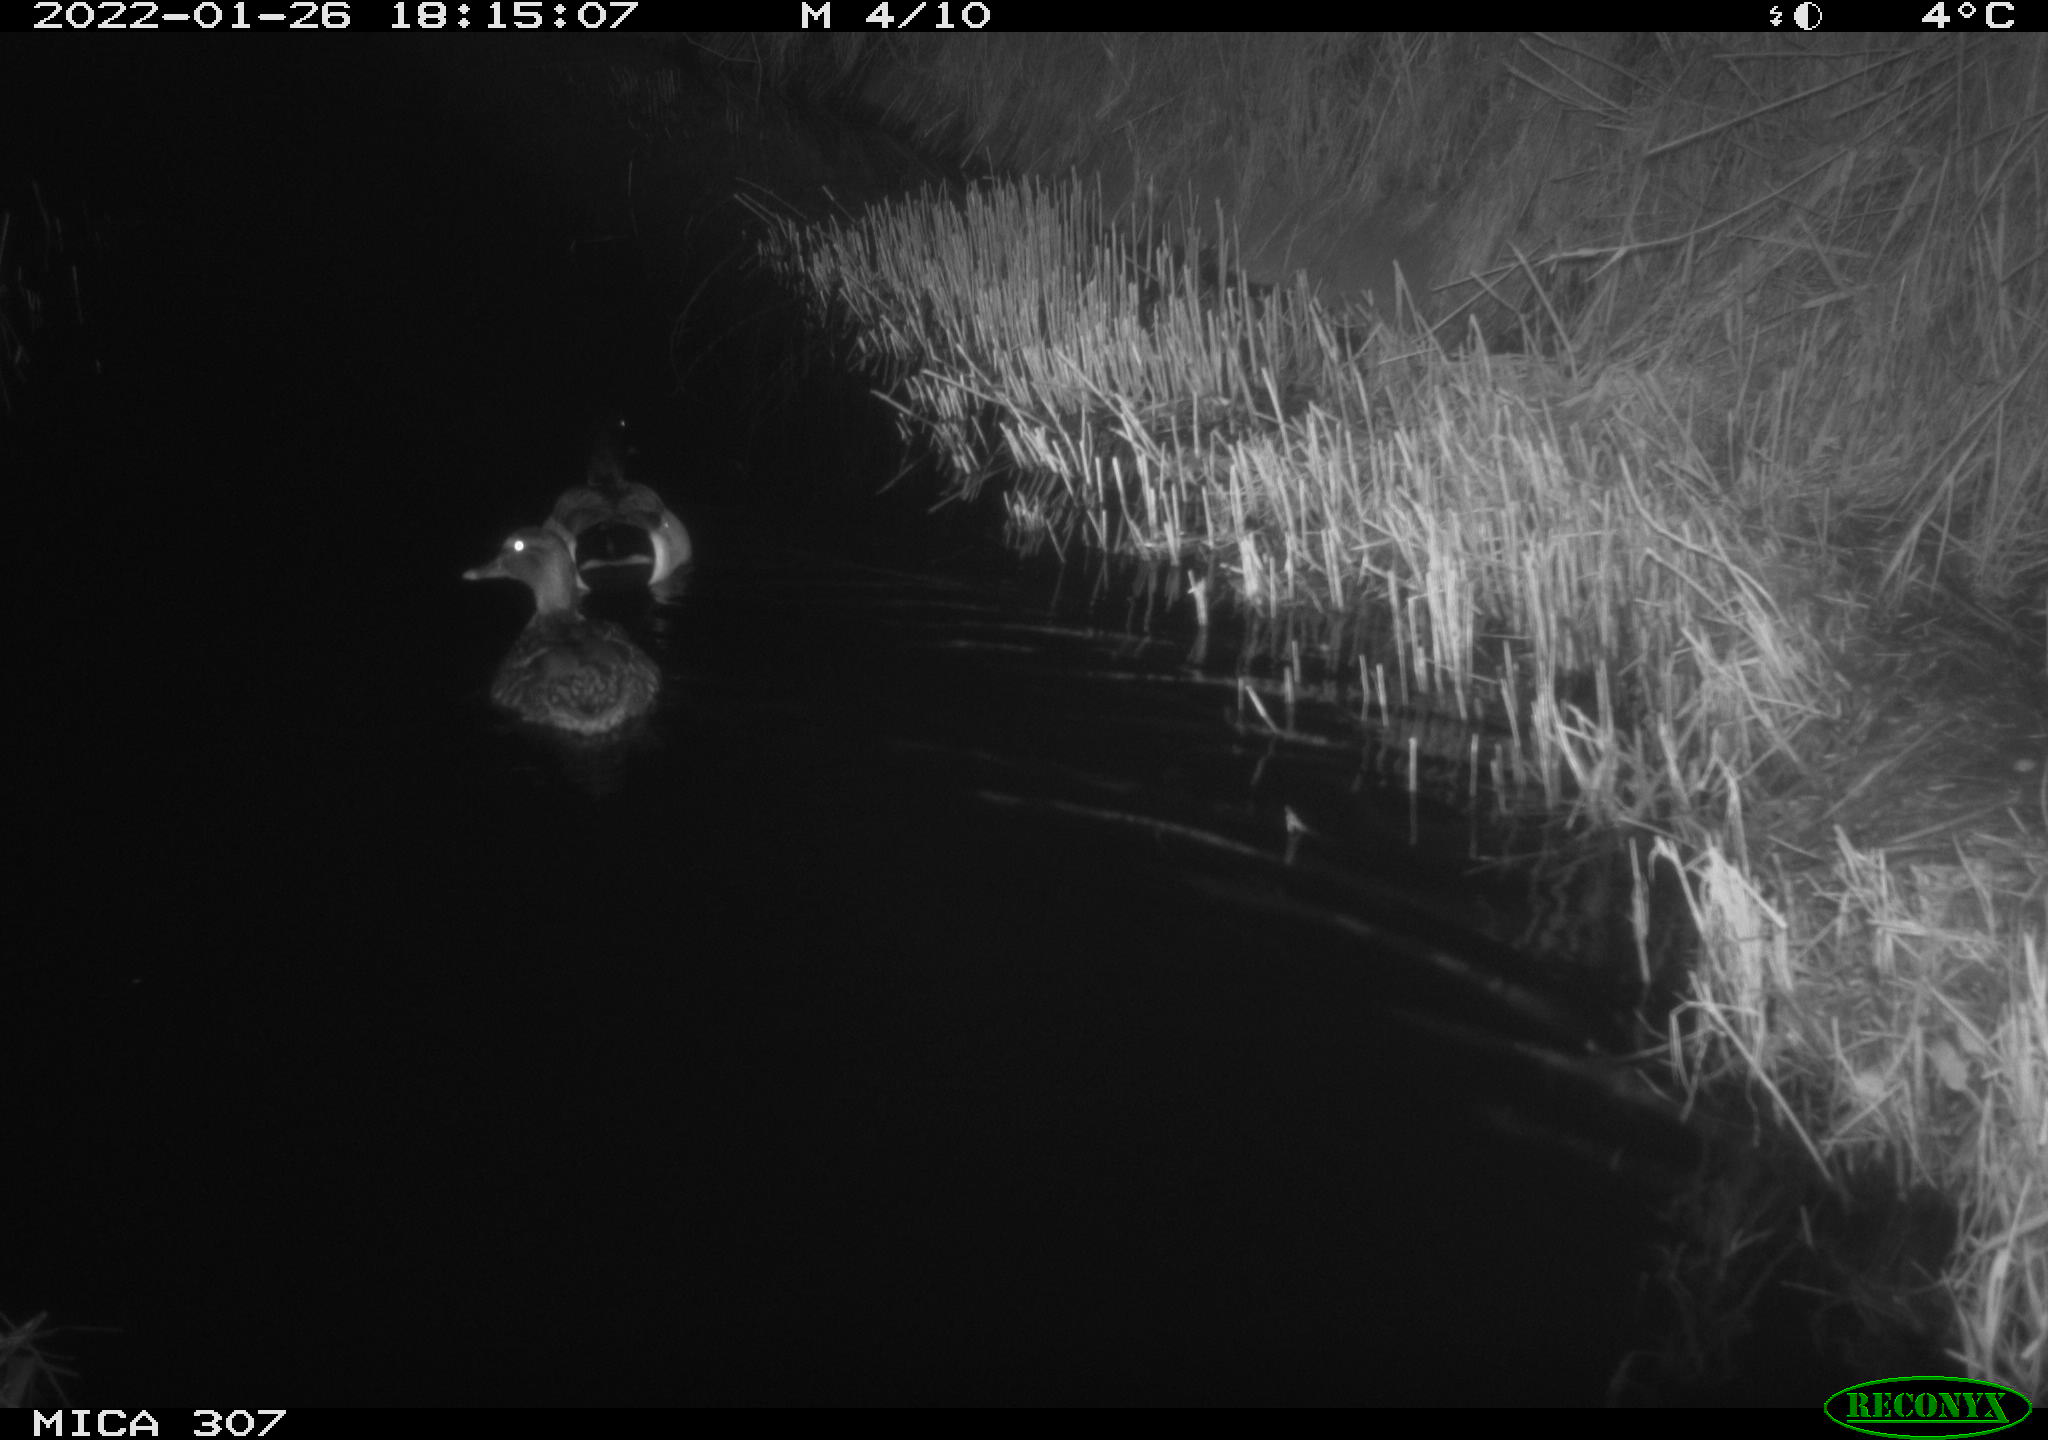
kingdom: Animalia
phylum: Chordata
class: Aves
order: Anseriformes
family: Anatidae
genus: Anas
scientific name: Anas
